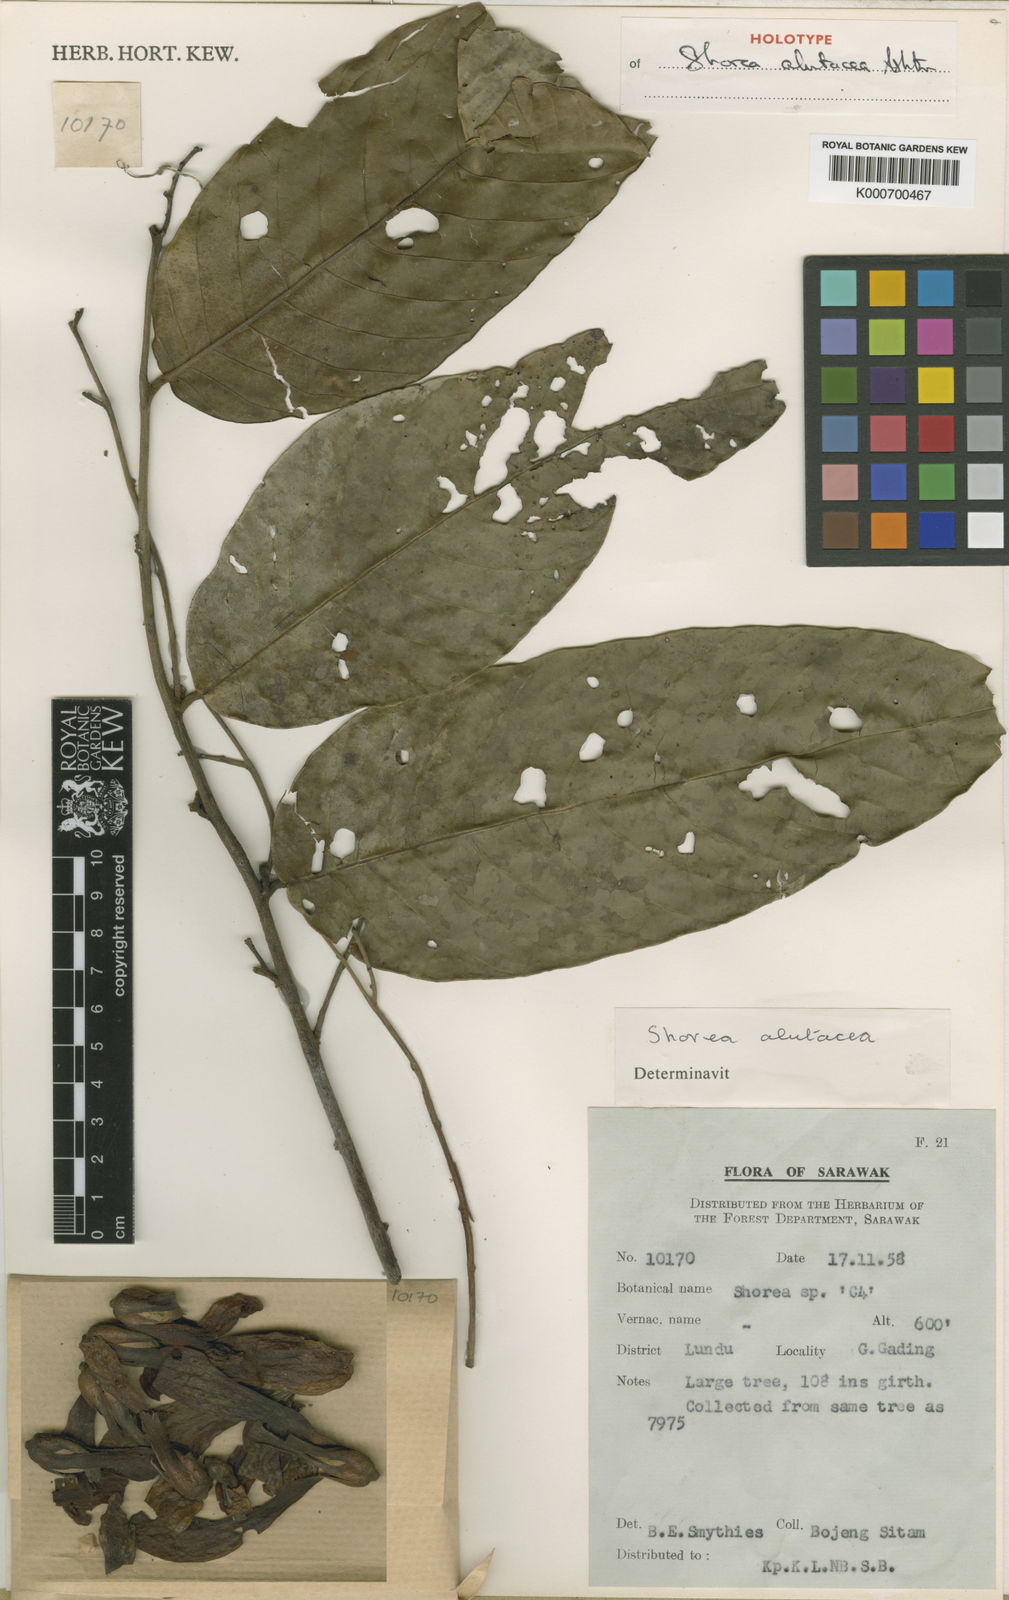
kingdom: Plantae
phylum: Tracheophyta
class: Magnoliopsida
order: Malvales
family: Dipterocarpaceae
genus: Shorea
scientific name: Shorea alutacea
